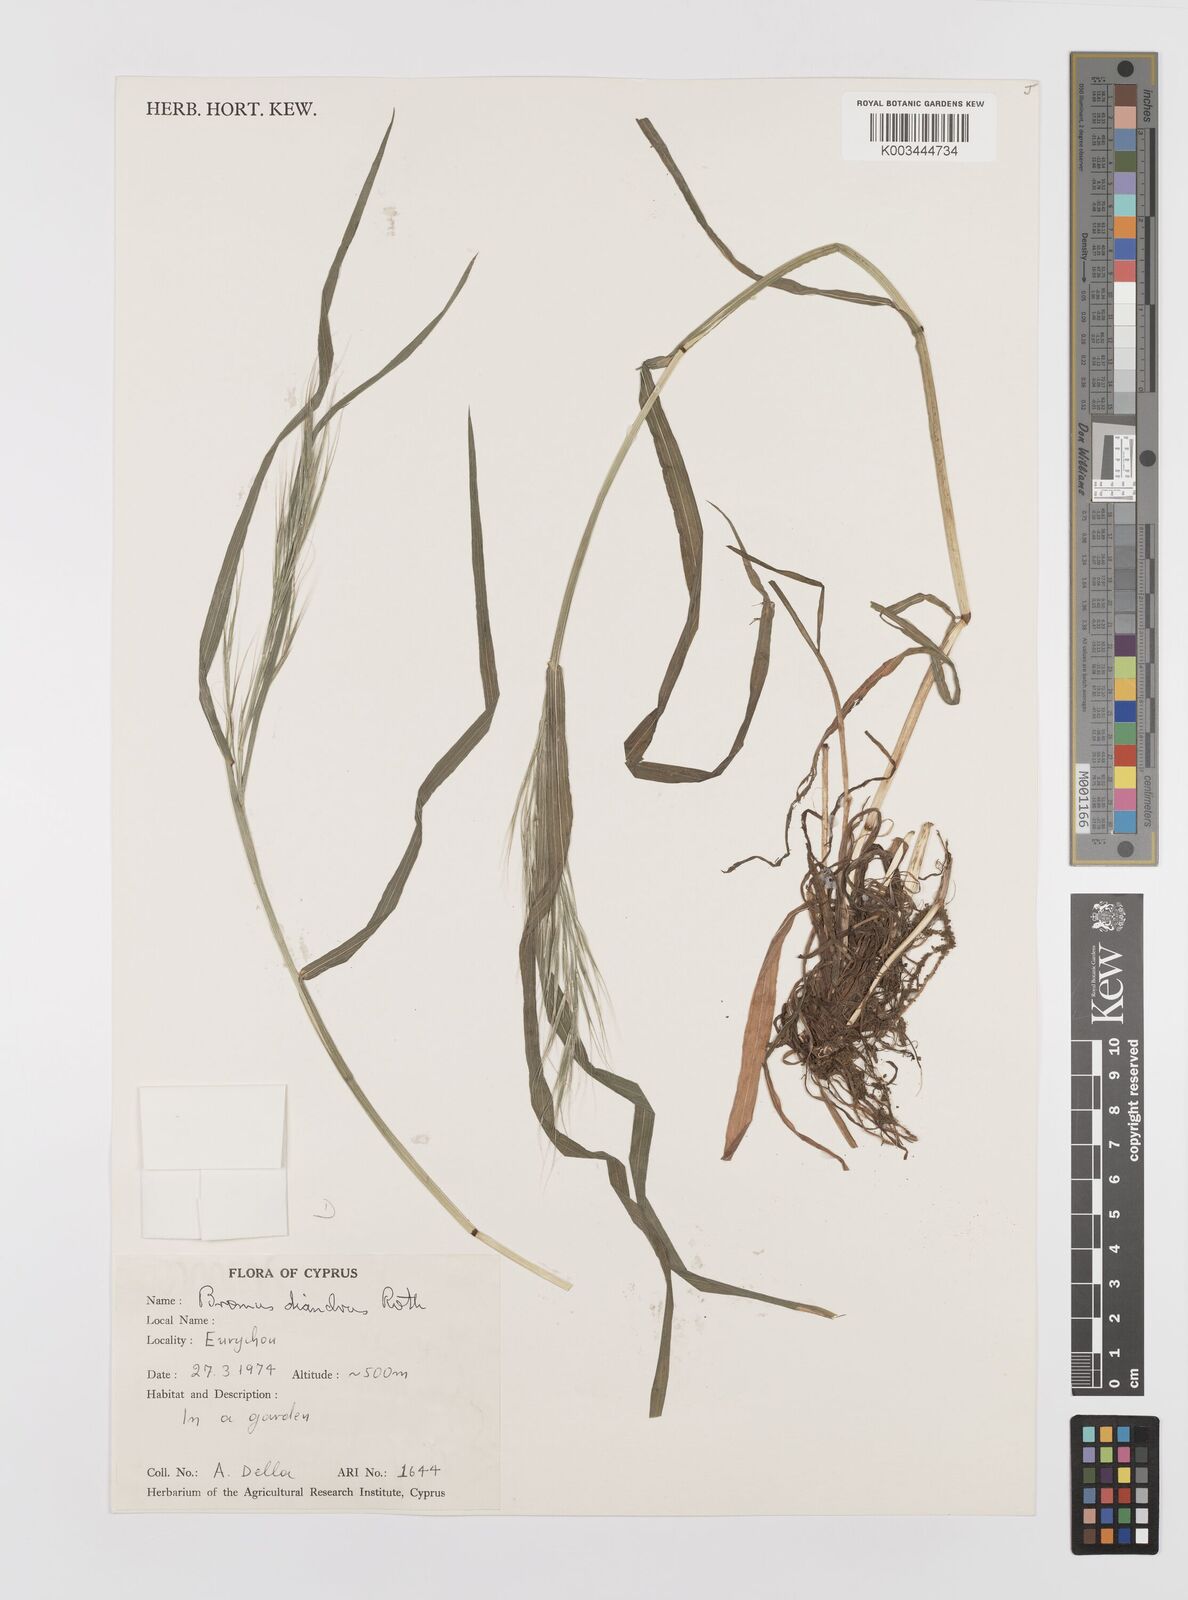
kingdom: Plantae
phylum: Tracheophyta
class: Liliopsida
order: Poales
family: Poaceae
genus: Bromus
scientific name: Bromus diandrus
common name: Ripgut brome
